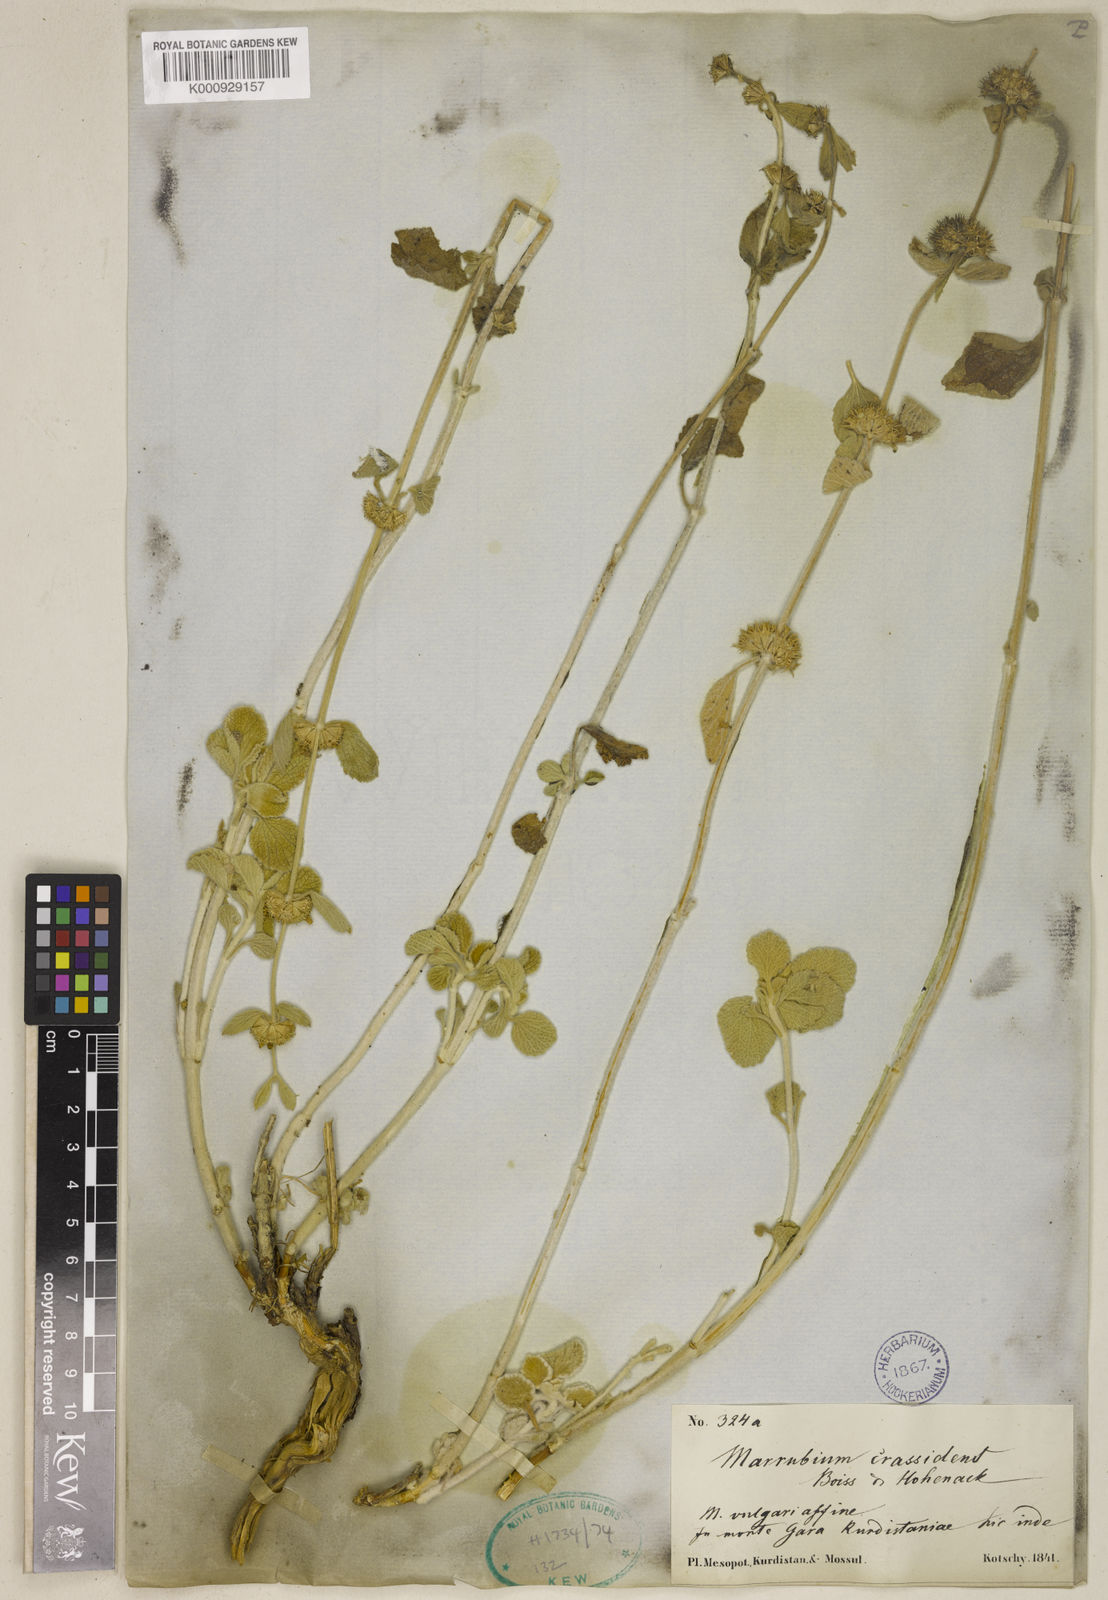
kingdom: Plantae
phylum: Tracheophyta
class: Magnoliopsida
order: Lamiales
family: Lamiaceae
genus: Marrubium
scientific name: Marrubium crassidens
